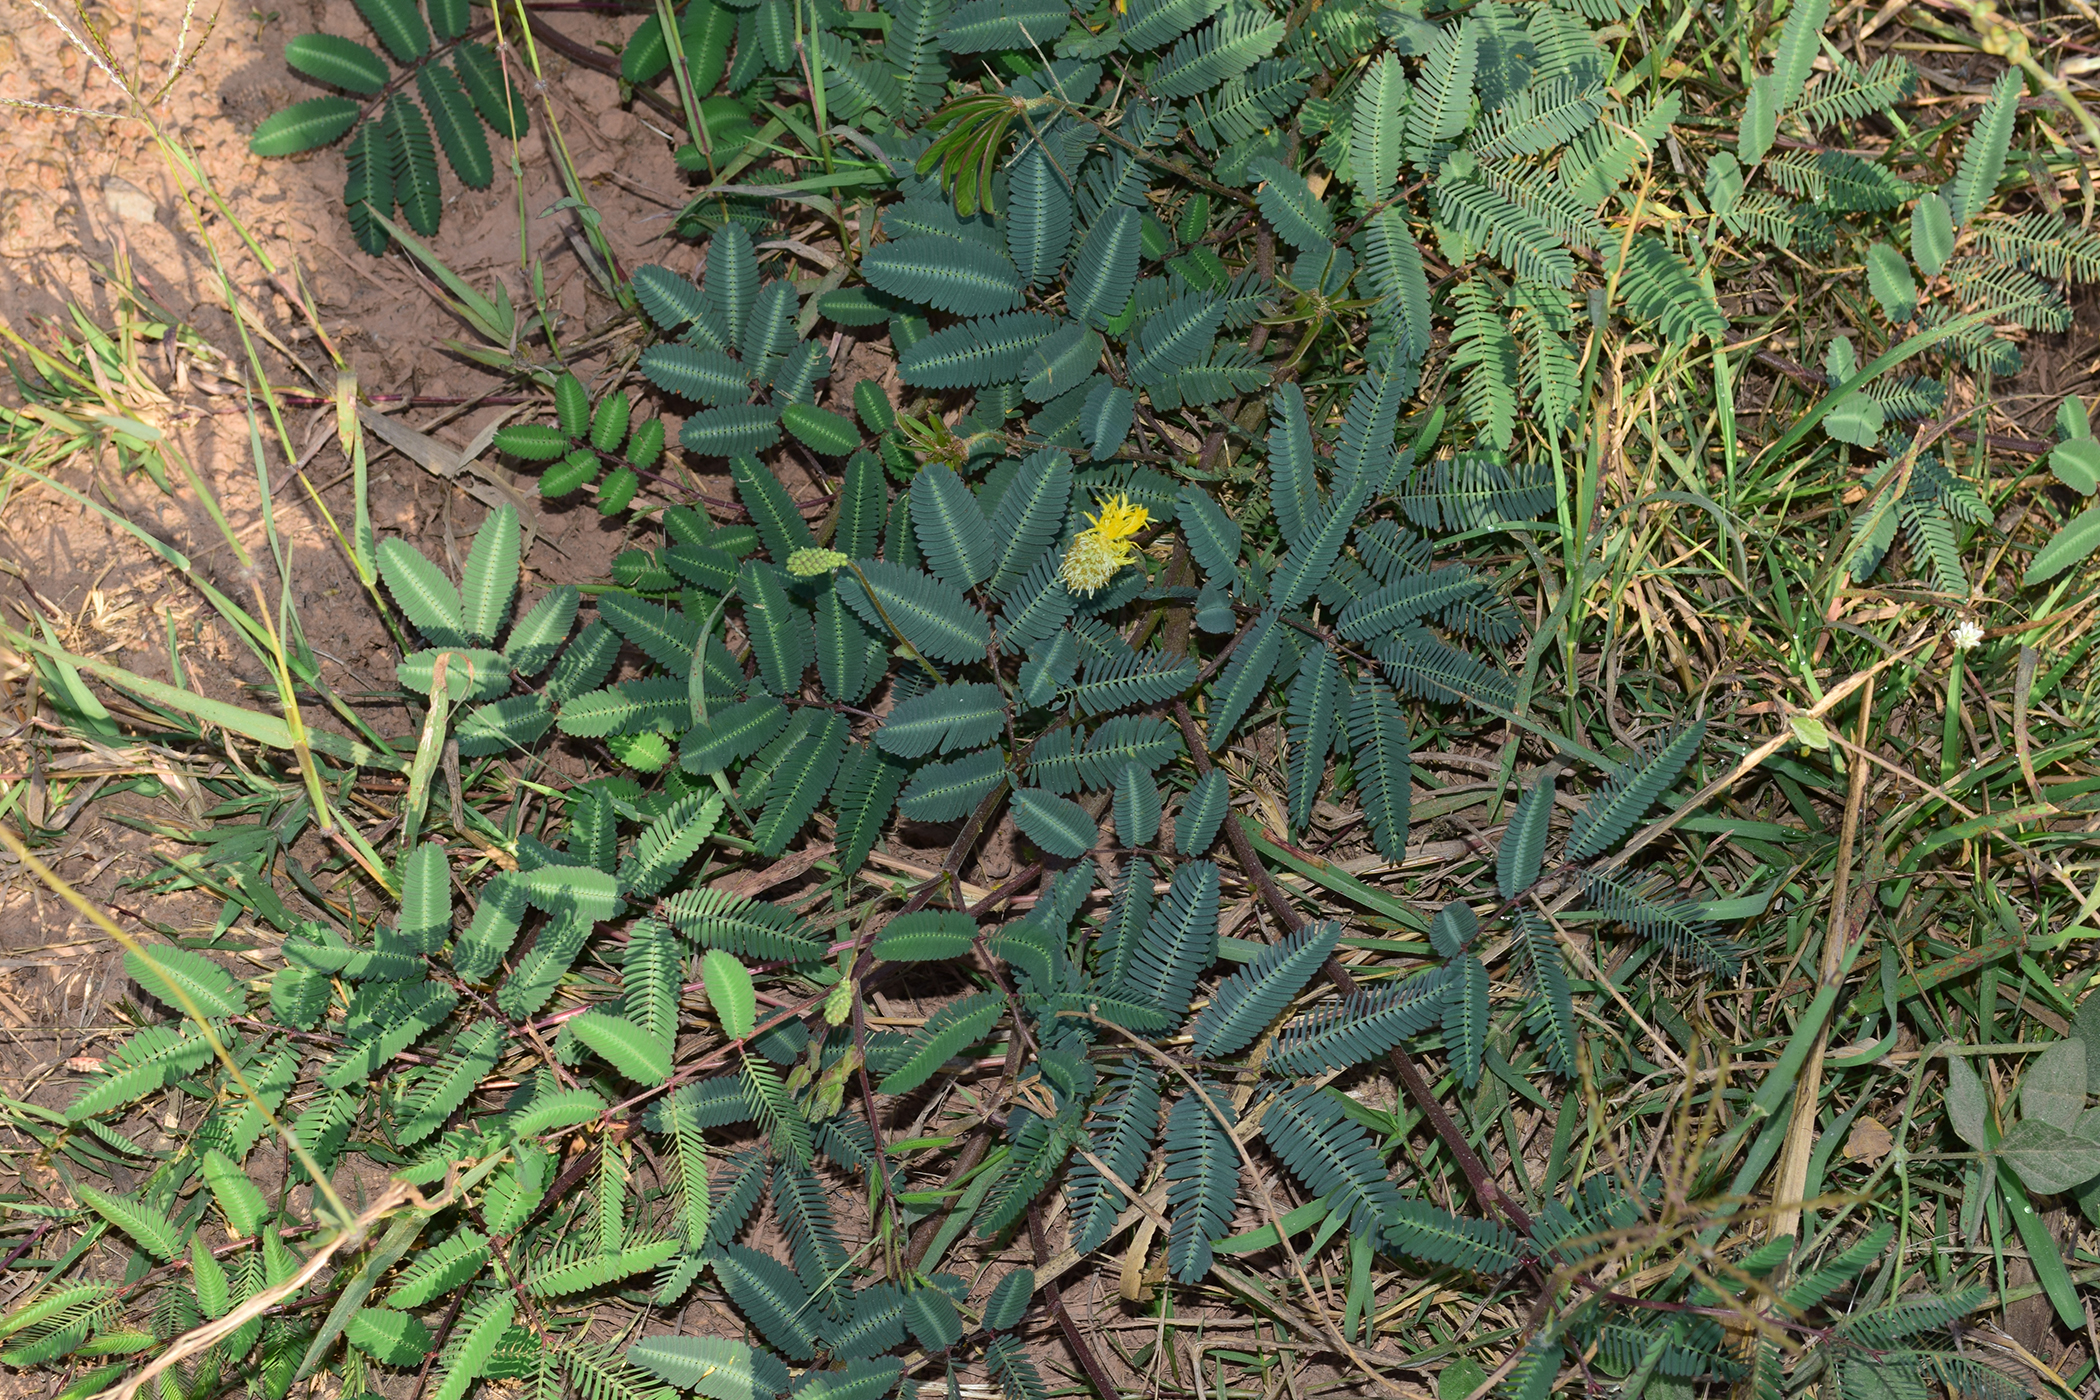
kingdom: Plantae
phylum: Tracheophyta
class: Magnoliopsida
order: Fabales
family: Fabaceae
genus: Neptunia
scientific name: Neptunia plena
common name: Dead and awake
